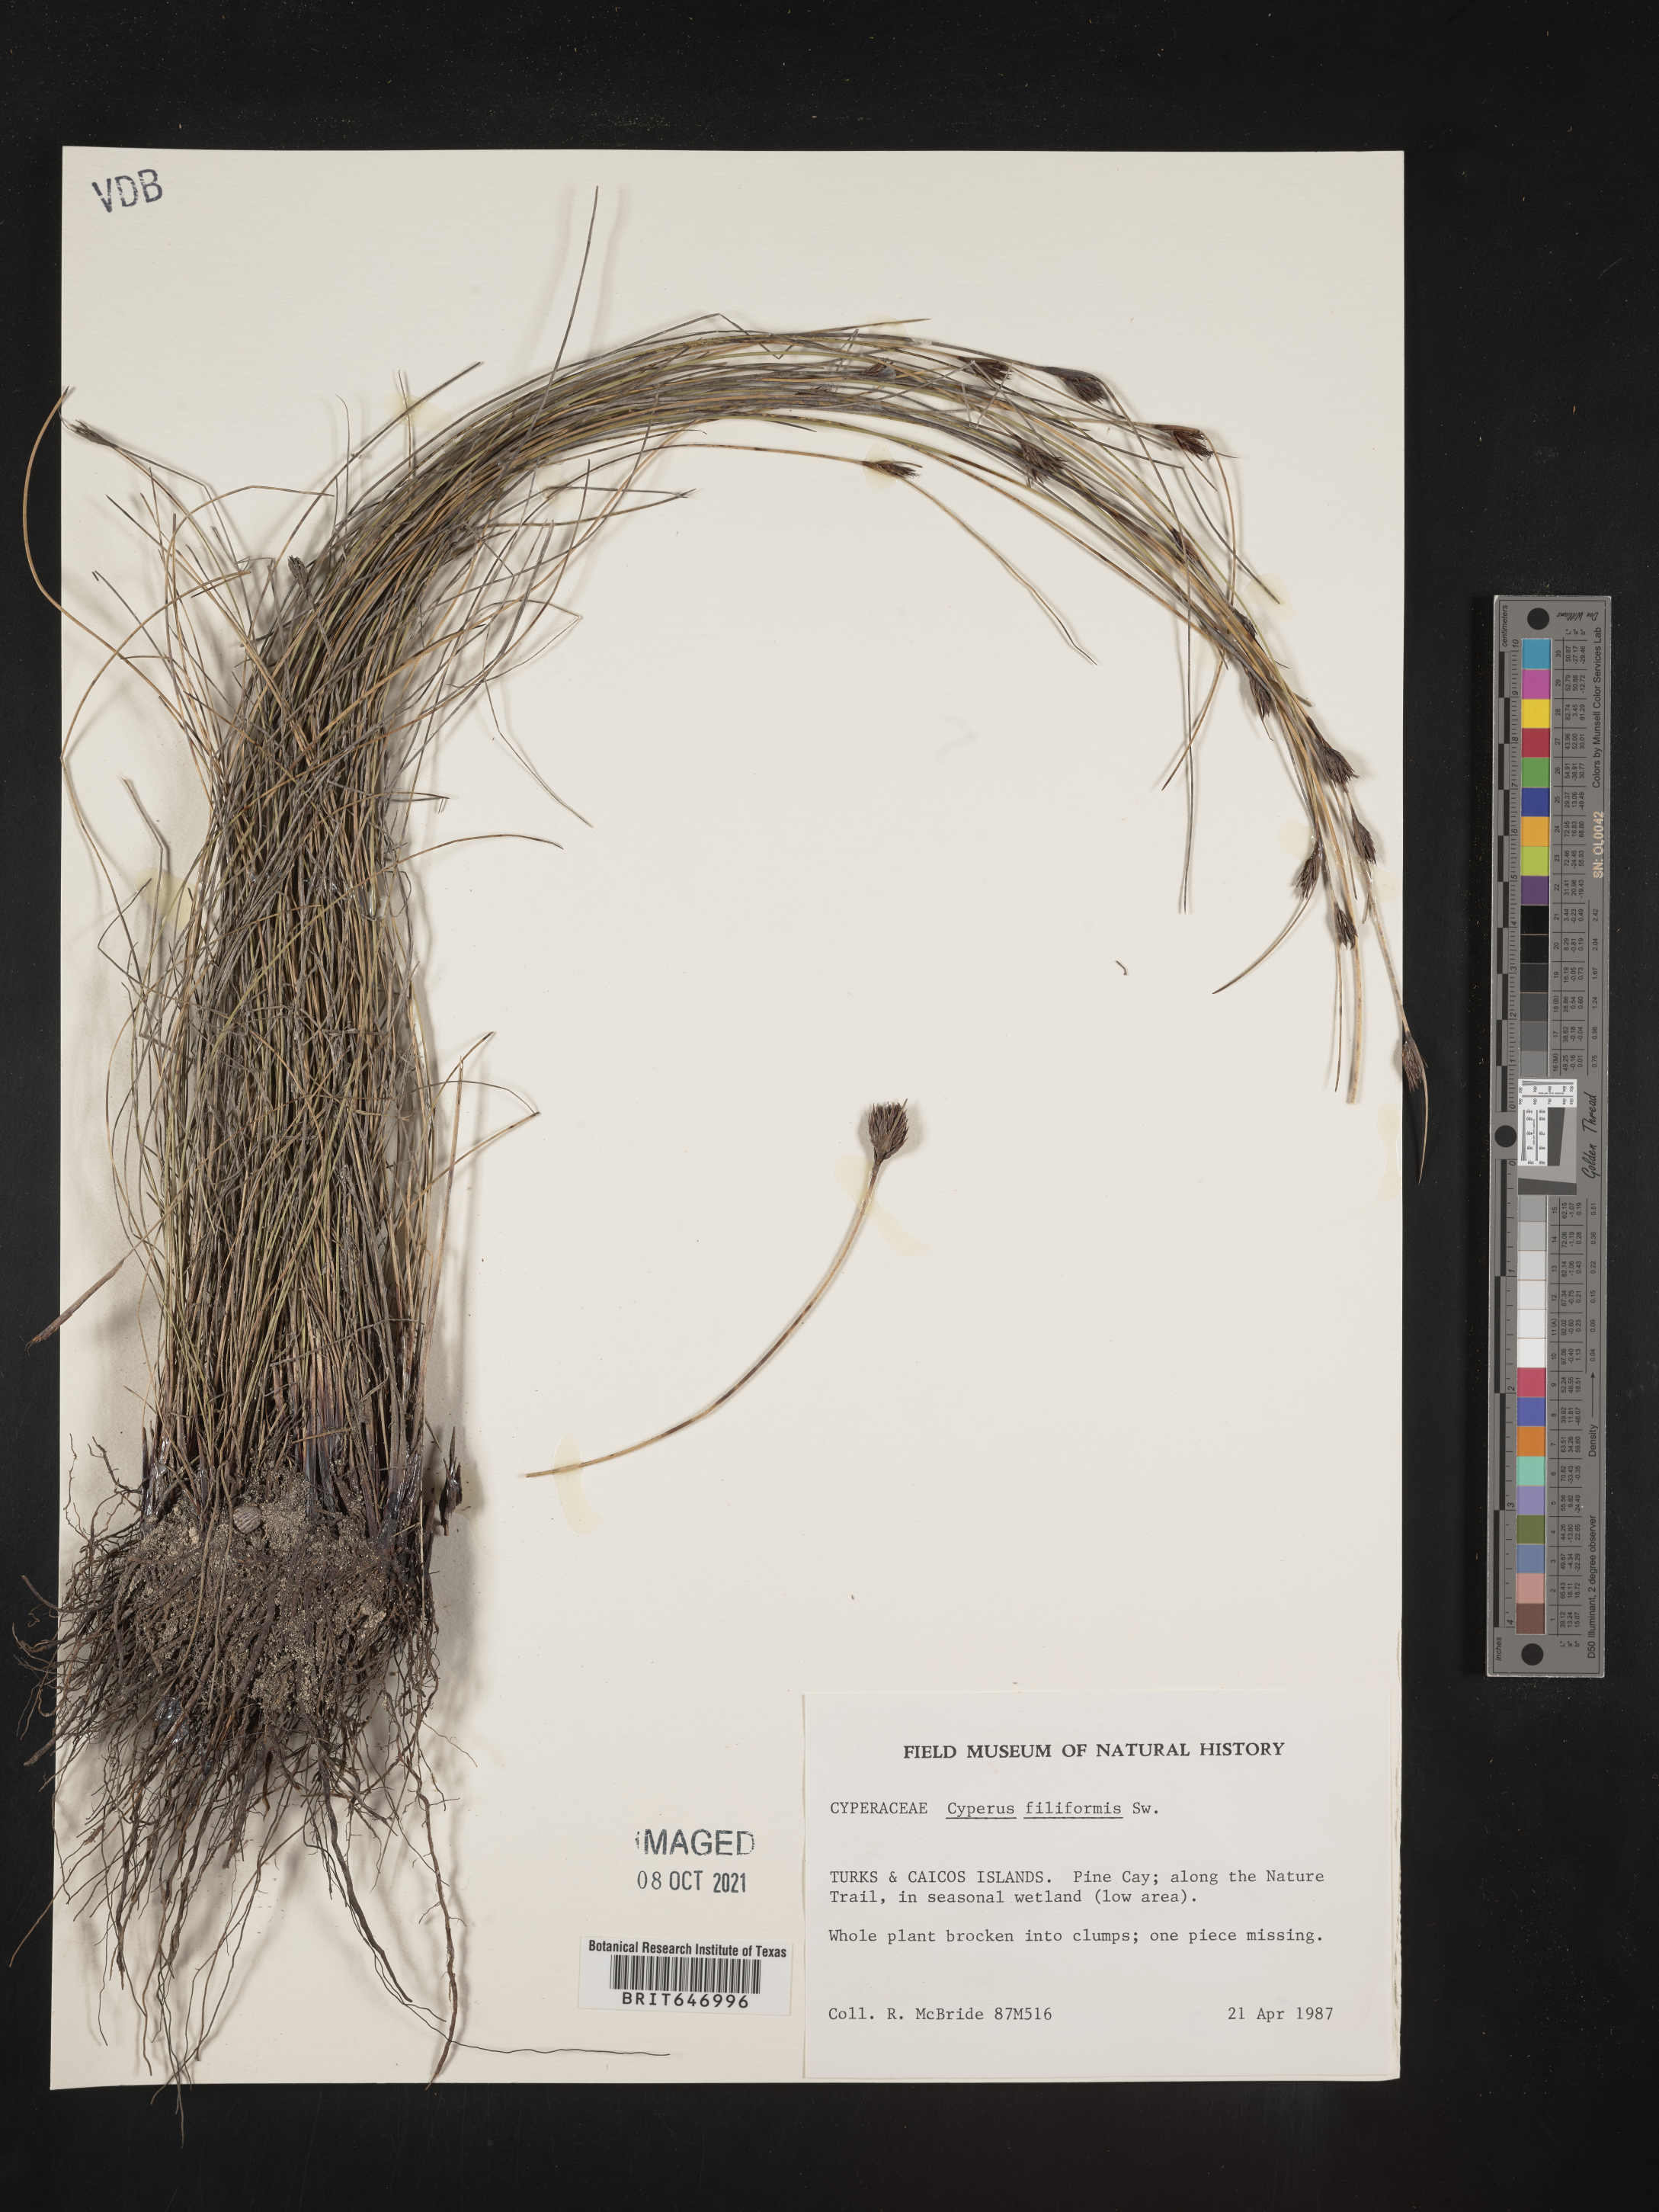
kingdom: Plantae
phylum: Tracheophyta
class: Liliopsida
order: Poales
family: Cyperaceae
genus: Cyperus
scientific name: Cyperus filiformis
